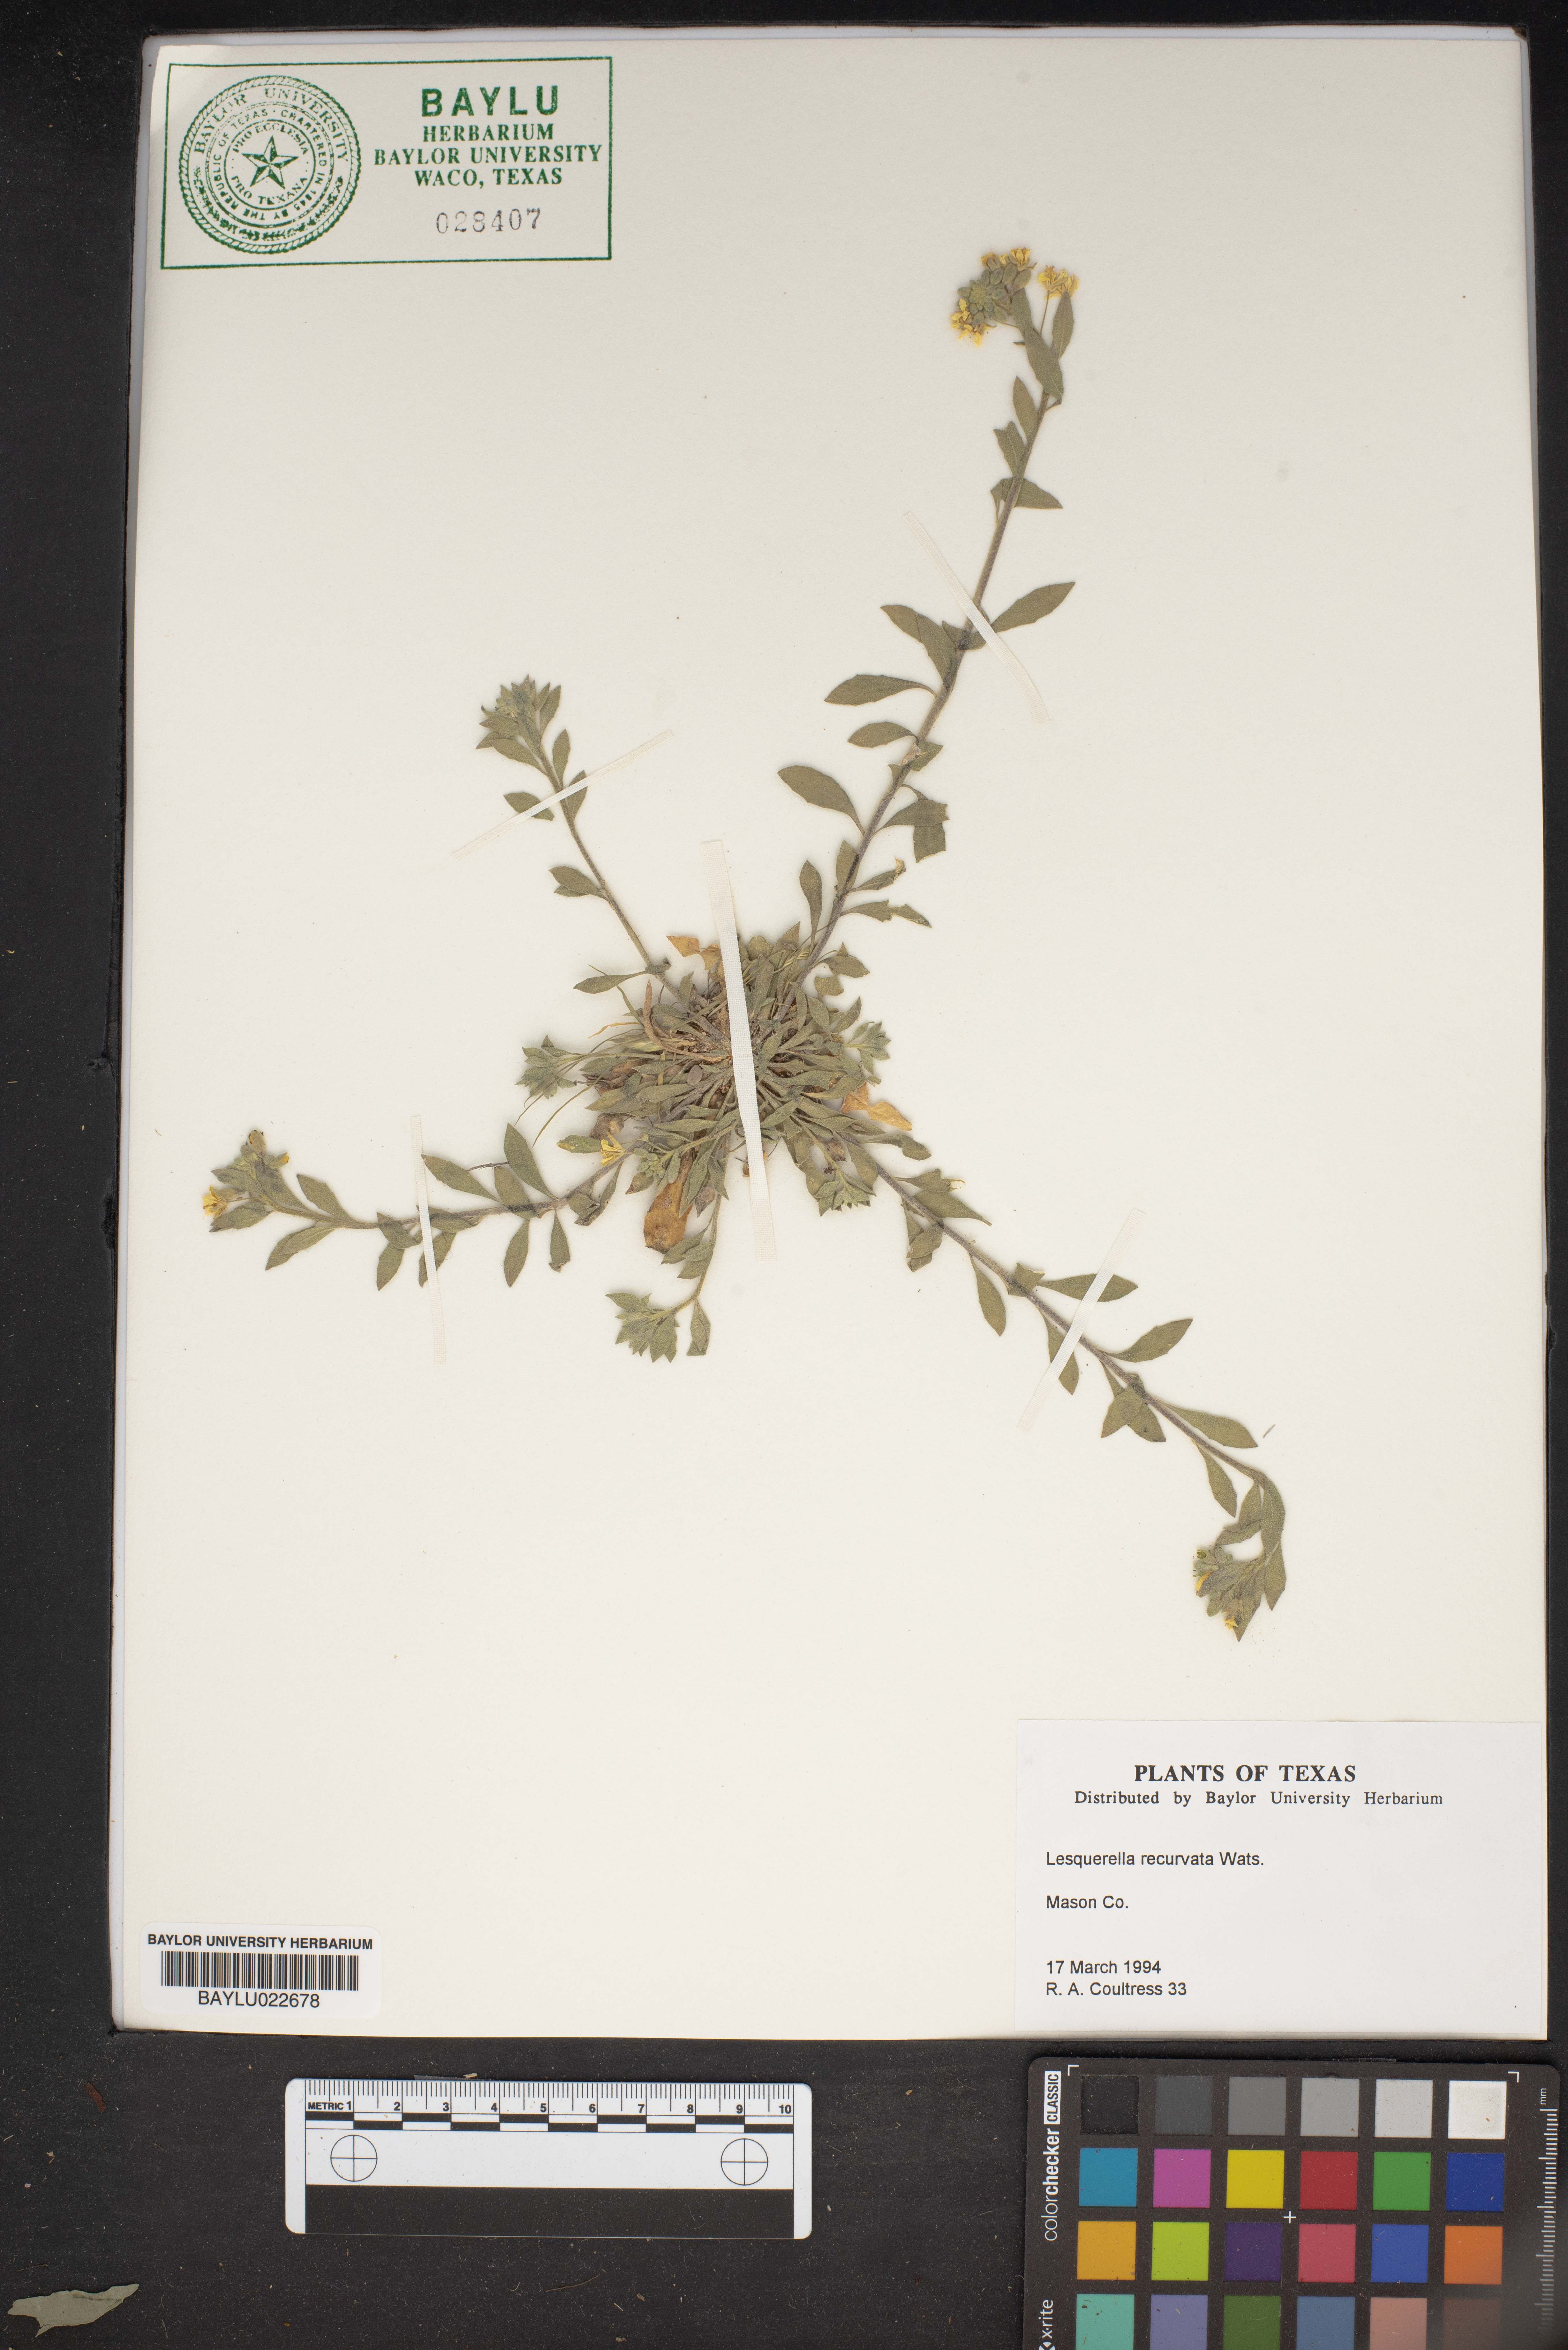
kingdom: Plantae
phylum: Tracheophyta
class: Magnoliopsida
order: Brassicales
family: Brassicaceae
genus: Physaria
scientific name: Physaria recurvata
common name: Gaslight bladderpod
